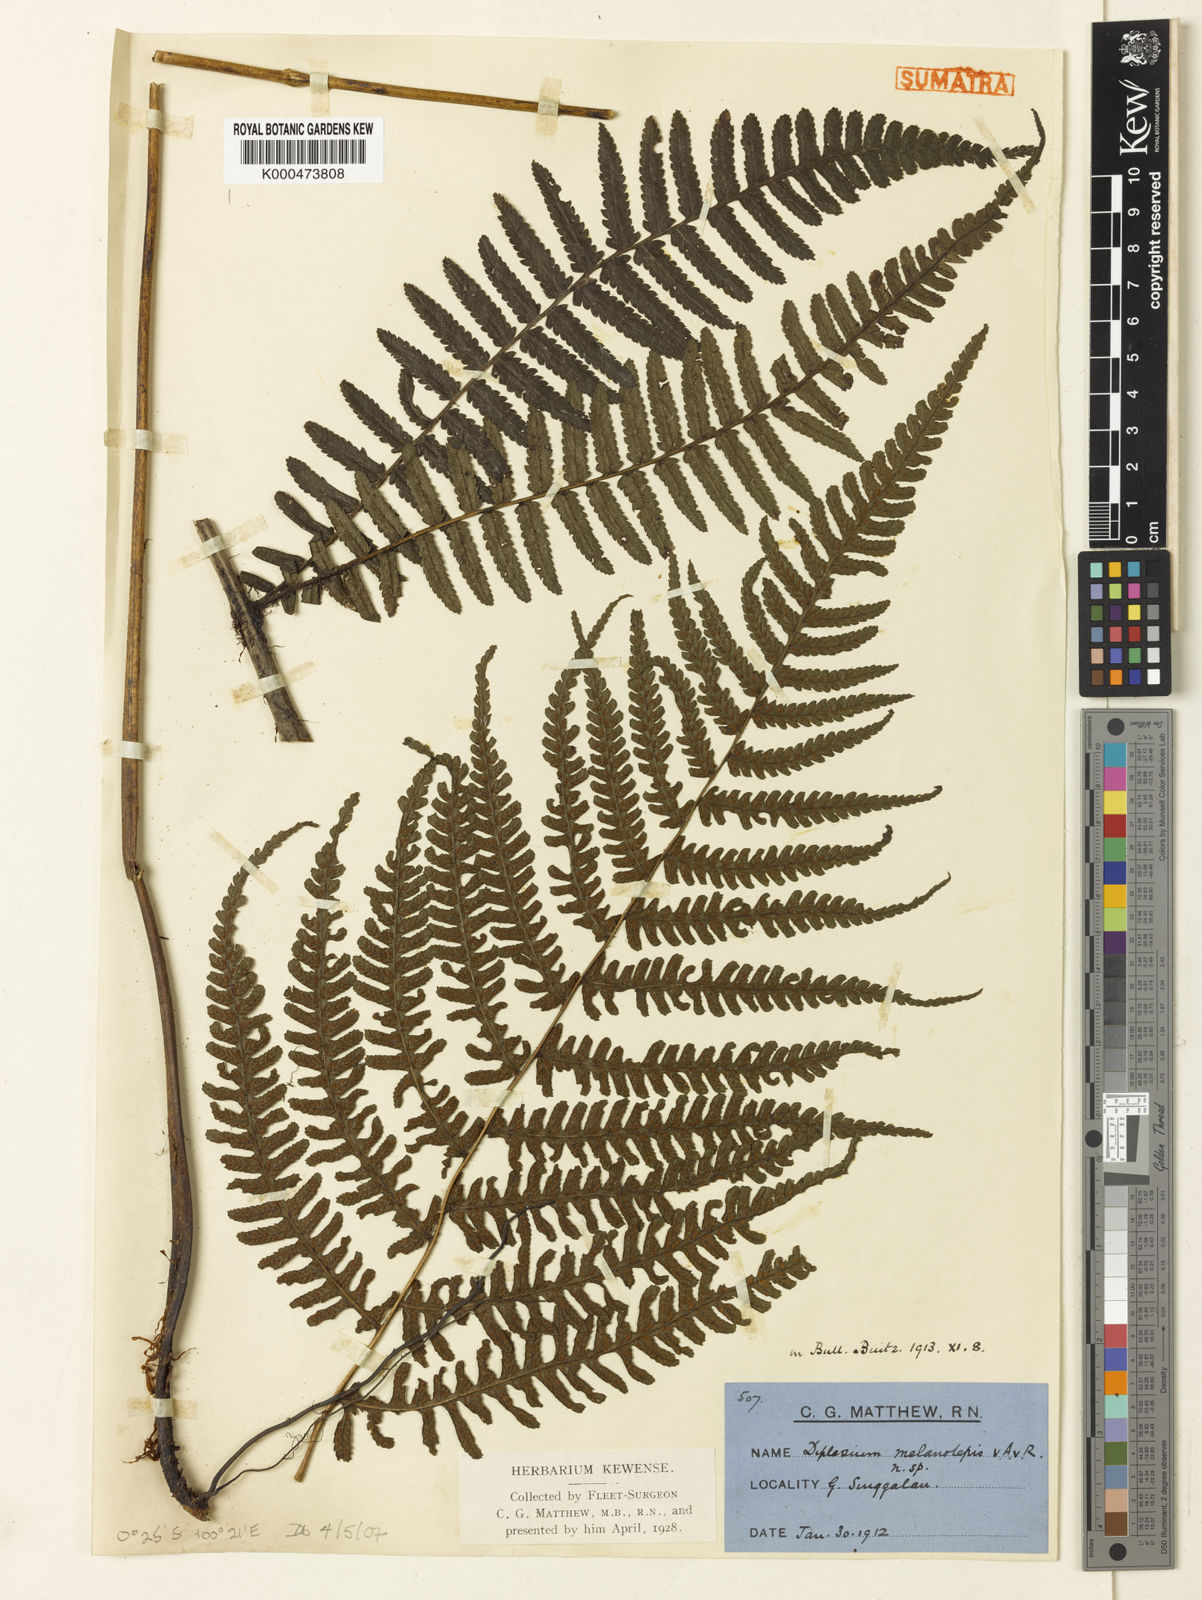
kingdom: Plantae
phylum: Tracheophyta
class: Polypodiopsida
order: Polypodiales
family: Athyriaceae
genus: Diplazium
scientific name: Diplazium melanolepis
